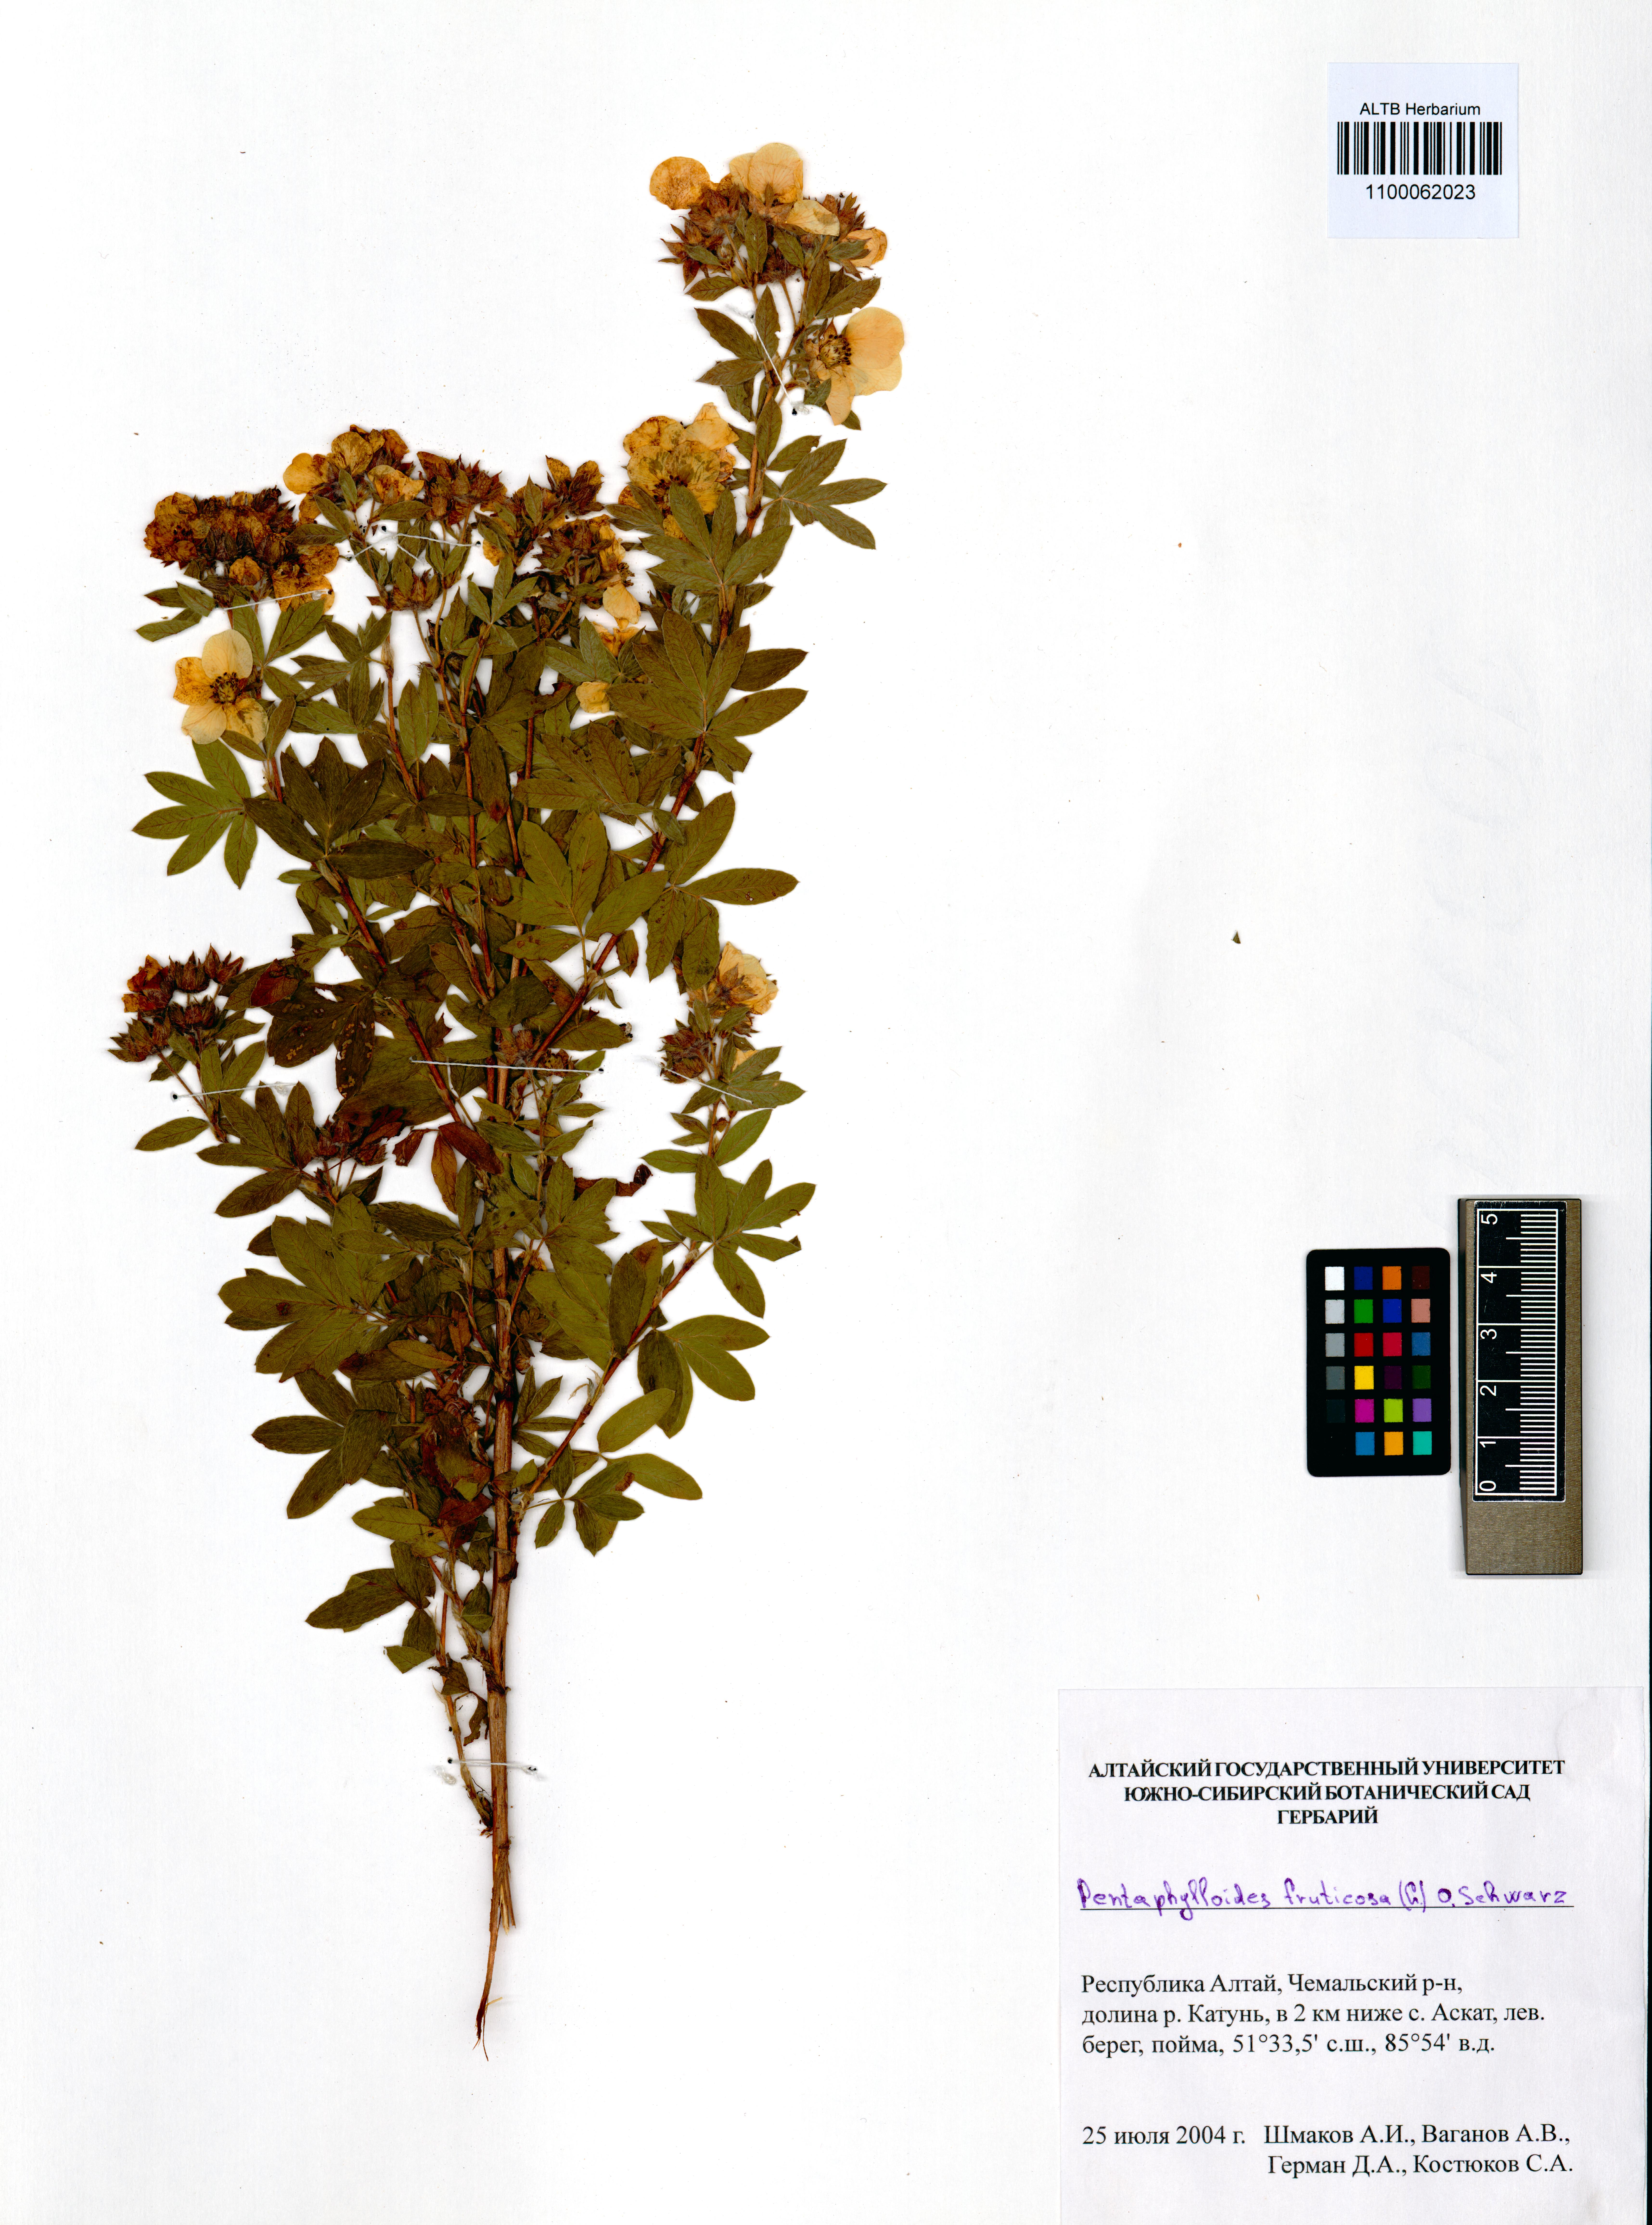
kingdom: Plantae
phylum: Tracheophyta
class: Magnoliopsida
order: Rosales
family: Rosaceae
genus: Dasiphora
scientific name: Dasiphora fruticosa
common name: Shrubby cinquefoil
